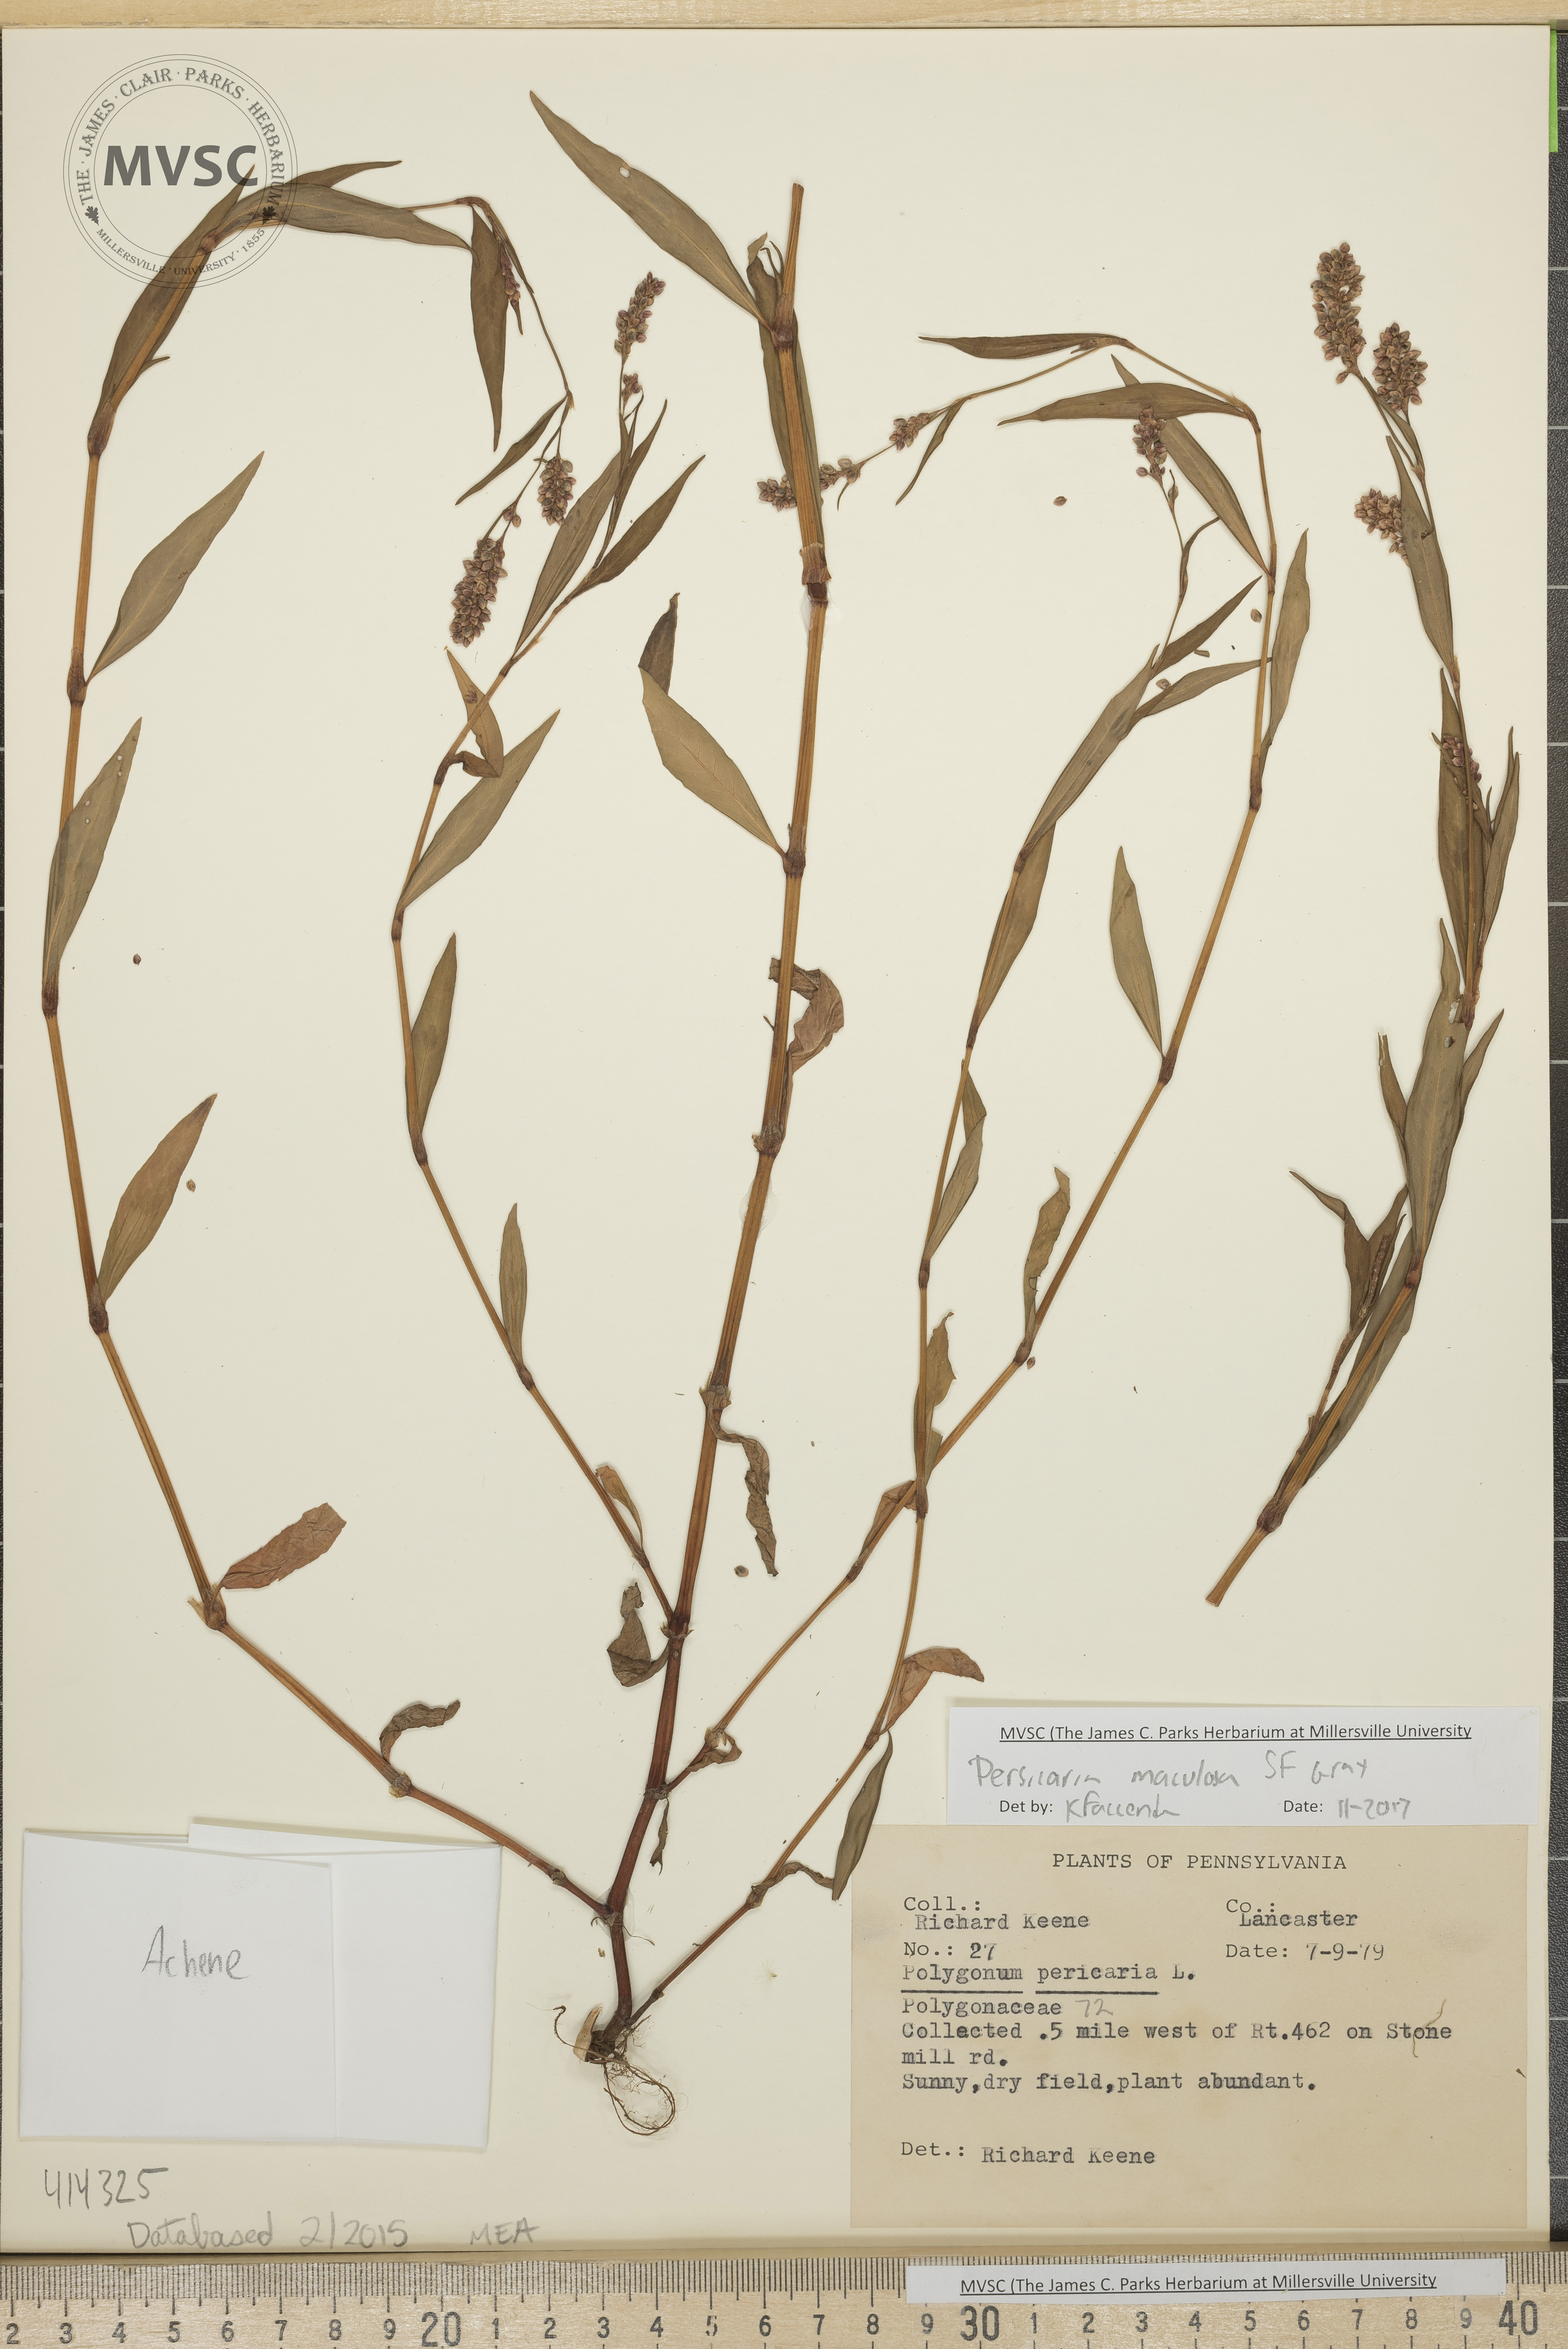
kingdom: Plantae
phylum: Tracheophyta
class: Magnoliopsida
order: Caryophyllales
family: Polygonaceae
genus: Persicaria
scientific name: Persicaria maculosa
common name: Spotted Lady's Thumb
